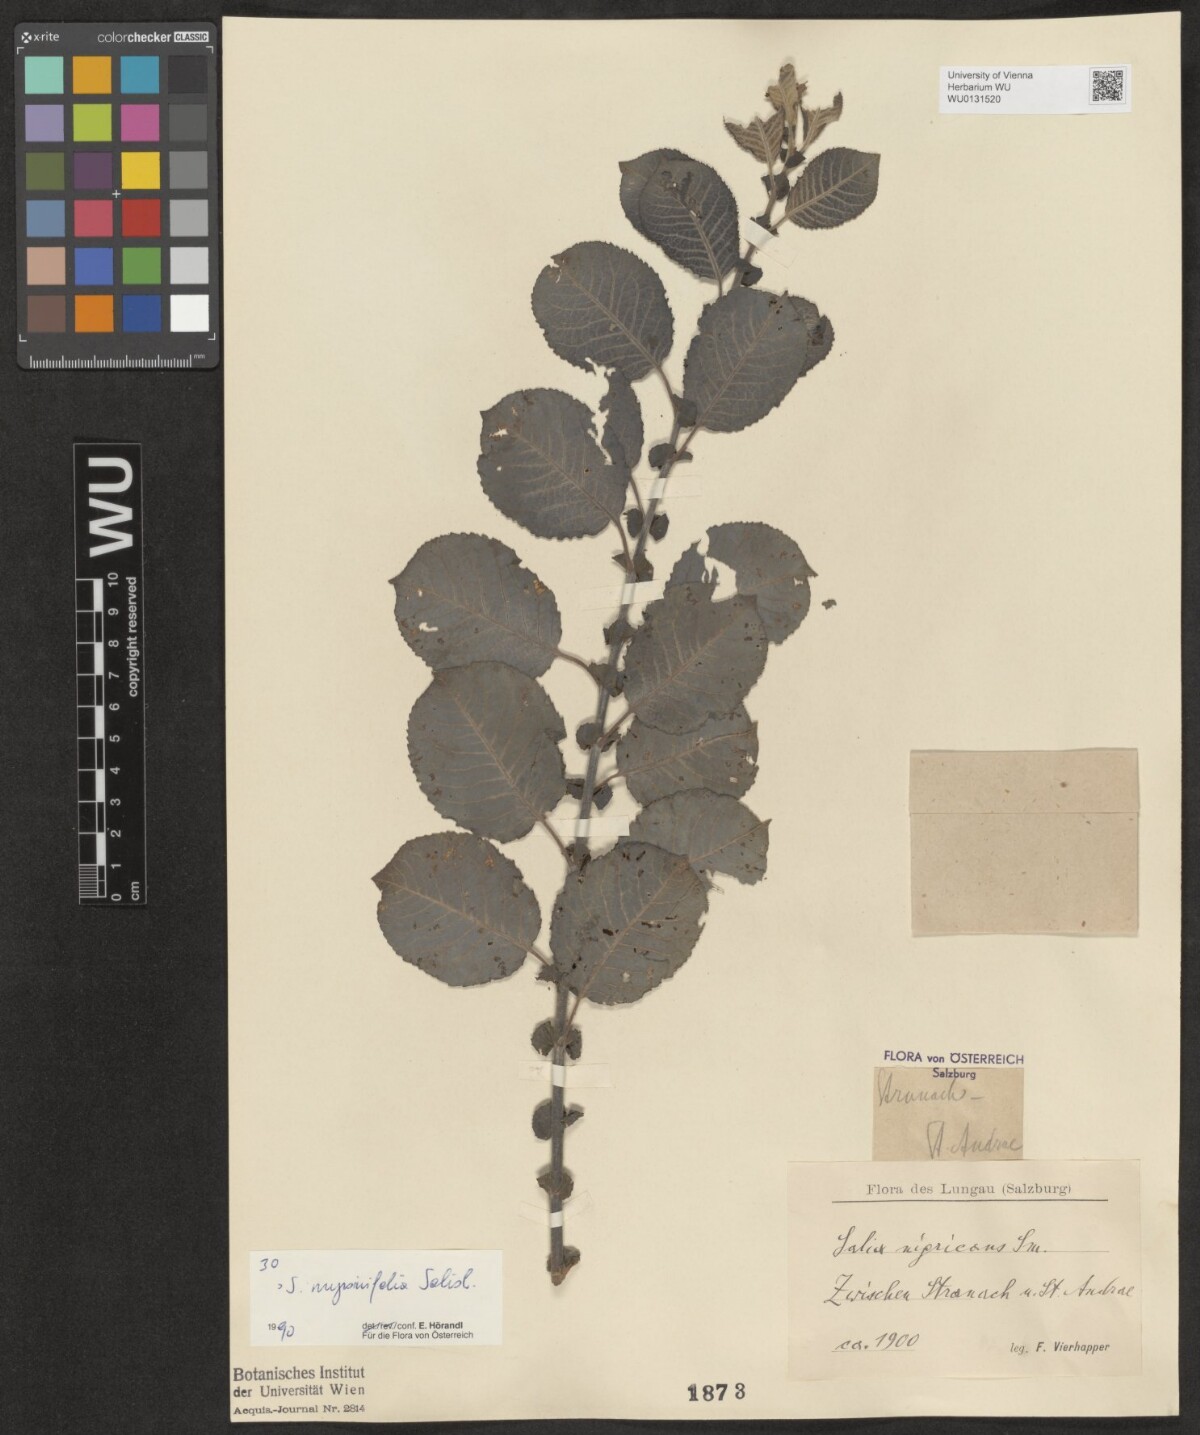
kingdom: Plantae
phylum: Tracheophyta
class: Magnoliopsida
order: Malpighiales
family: Salicaceae
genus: Salix
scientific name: Salix myrsinifolia
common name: Dark-leaved willow
